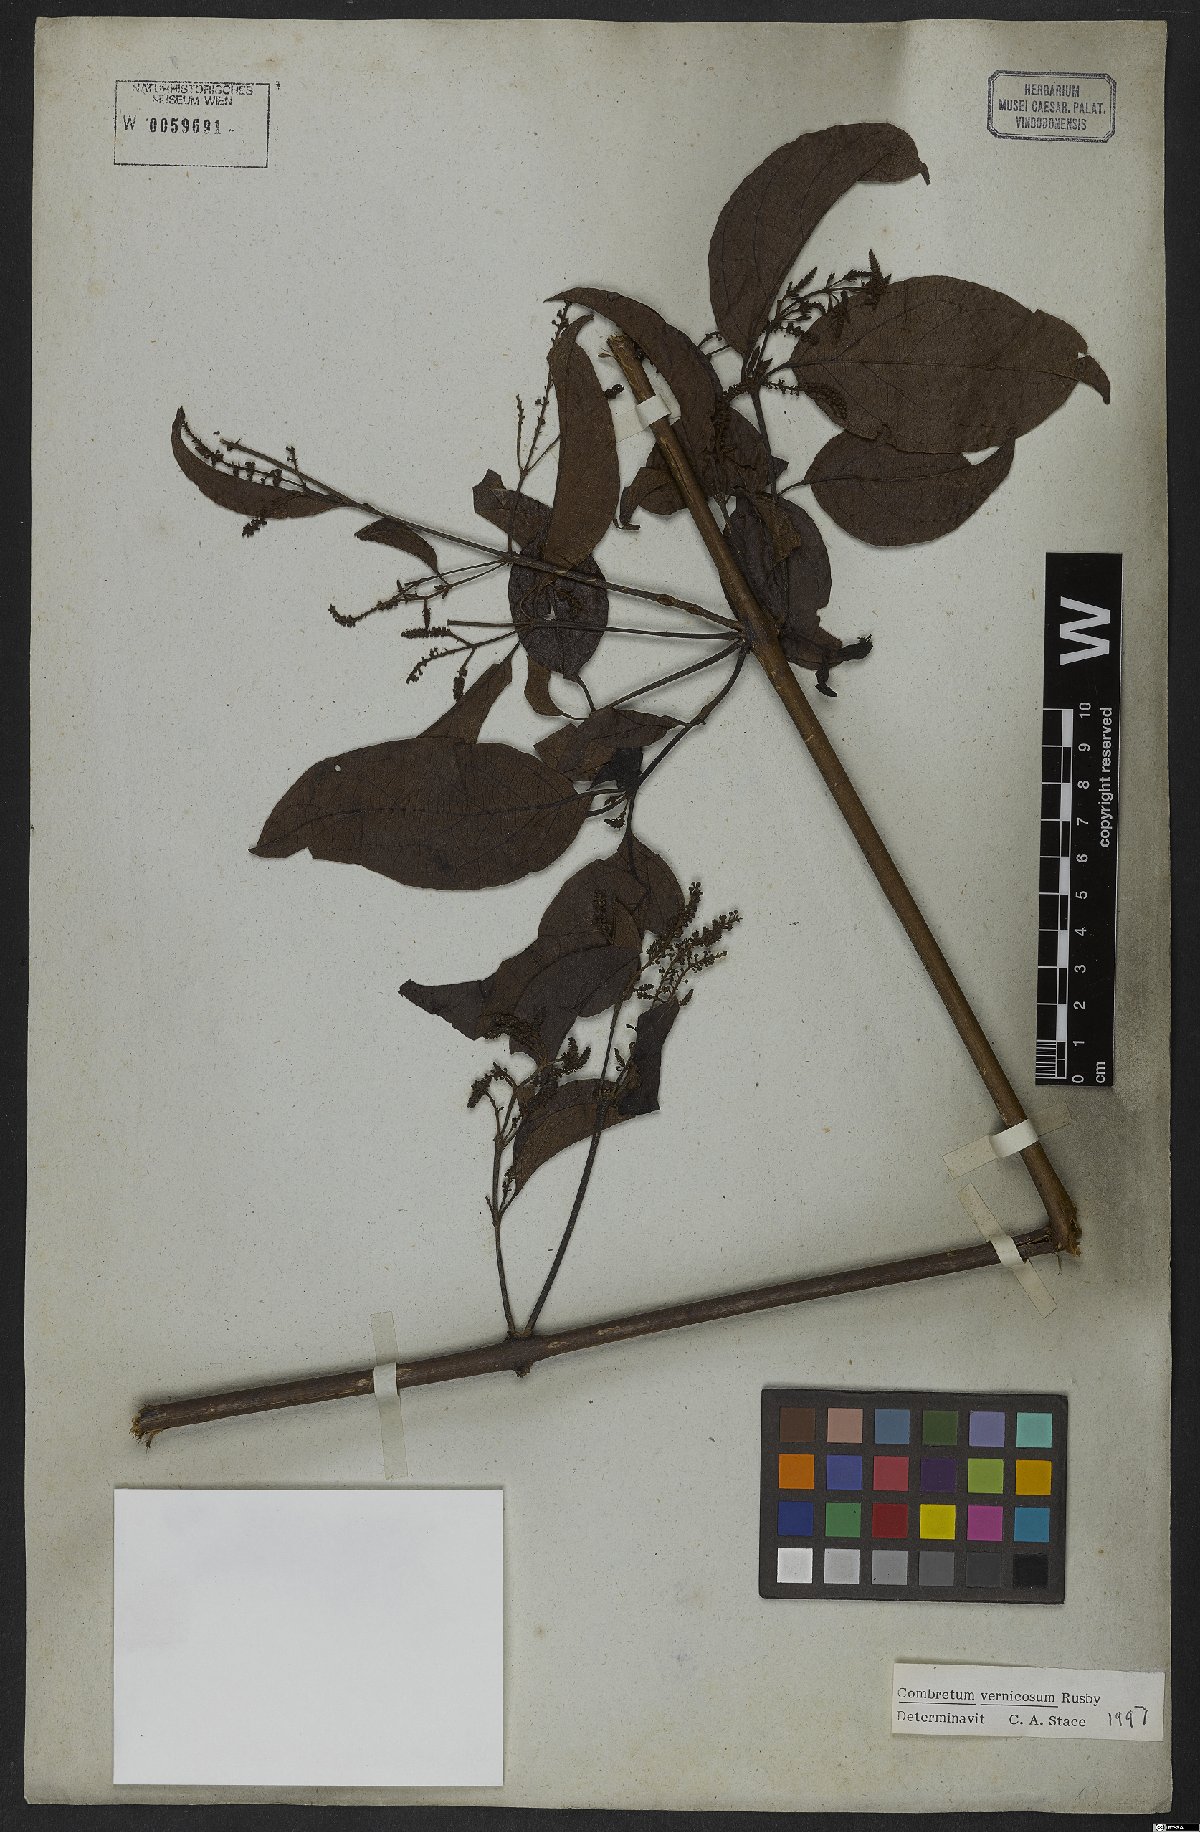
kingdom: Plantae
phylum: Tracheophyta
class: Magnoliopsida
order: Myrtales
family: Combretaceae
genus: Combretum
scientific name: Combretum vernicosum
